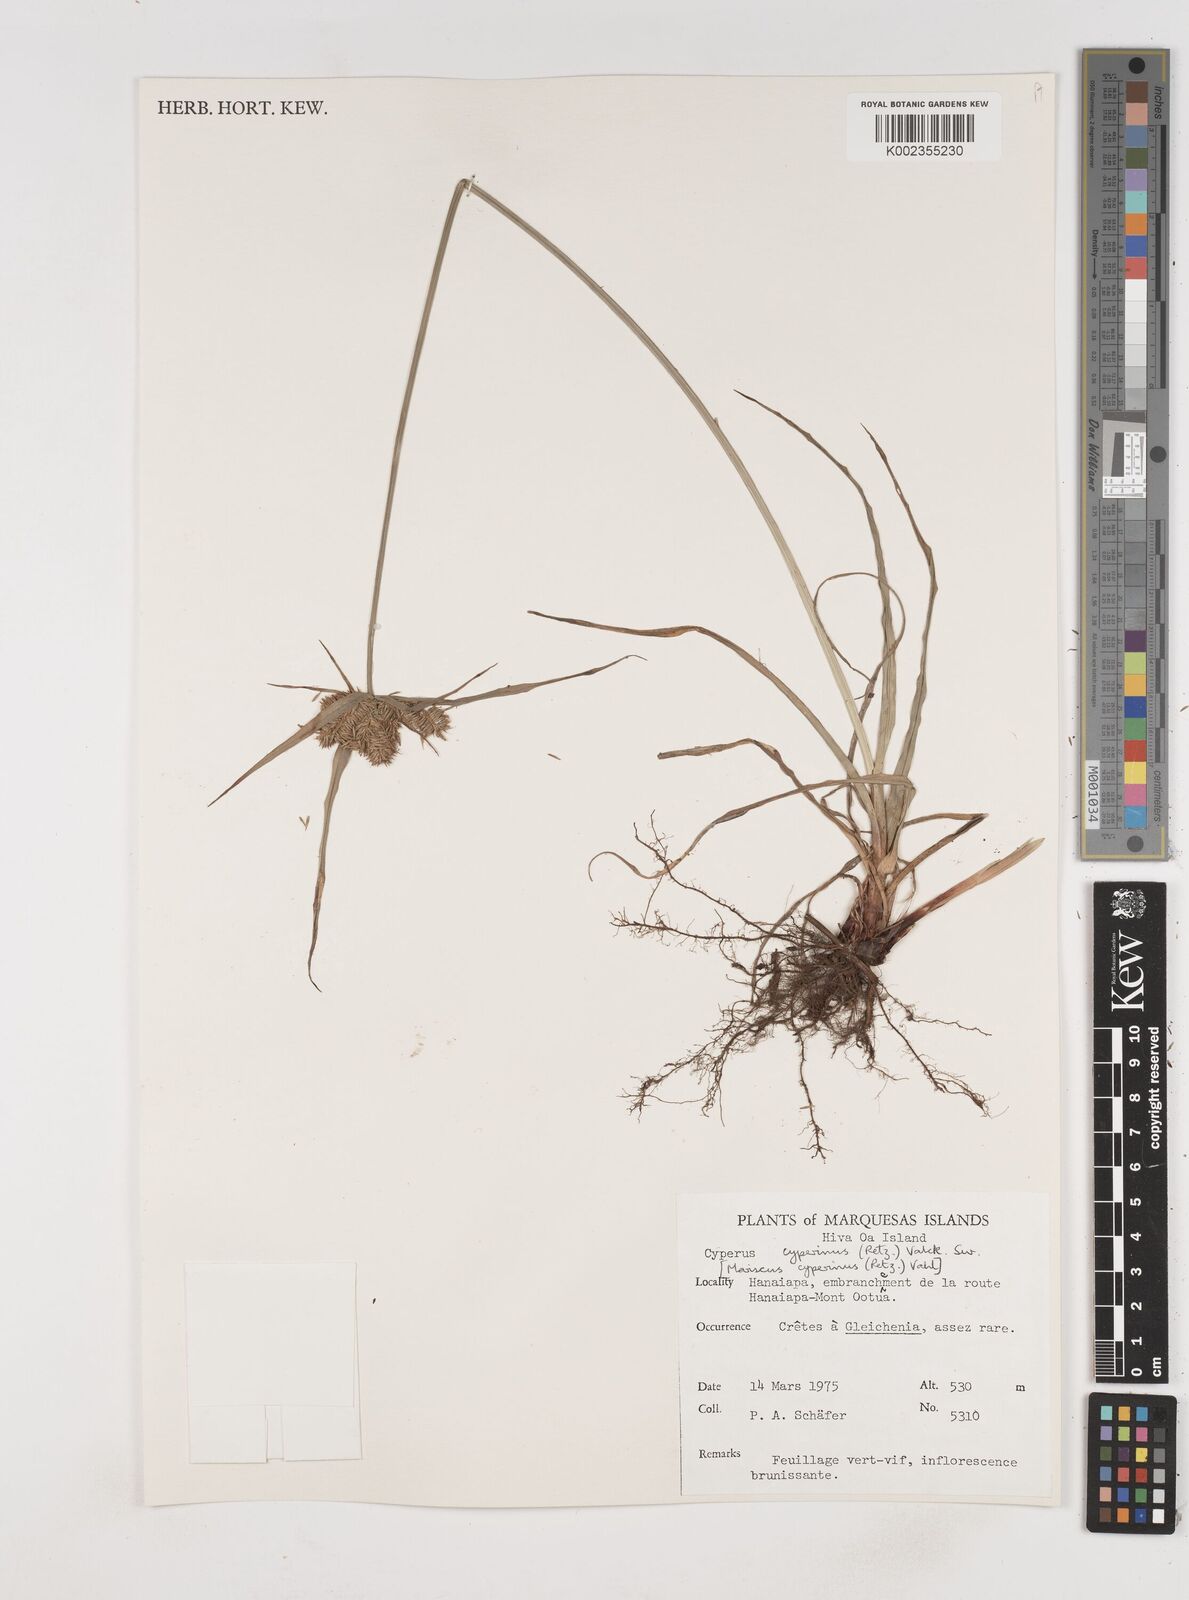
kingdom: Plantae
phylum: Tracheophyta
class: Liliopsida
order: Poales
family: Cyperaceae
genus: Cyperus
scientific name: Cyperus cyperinus
